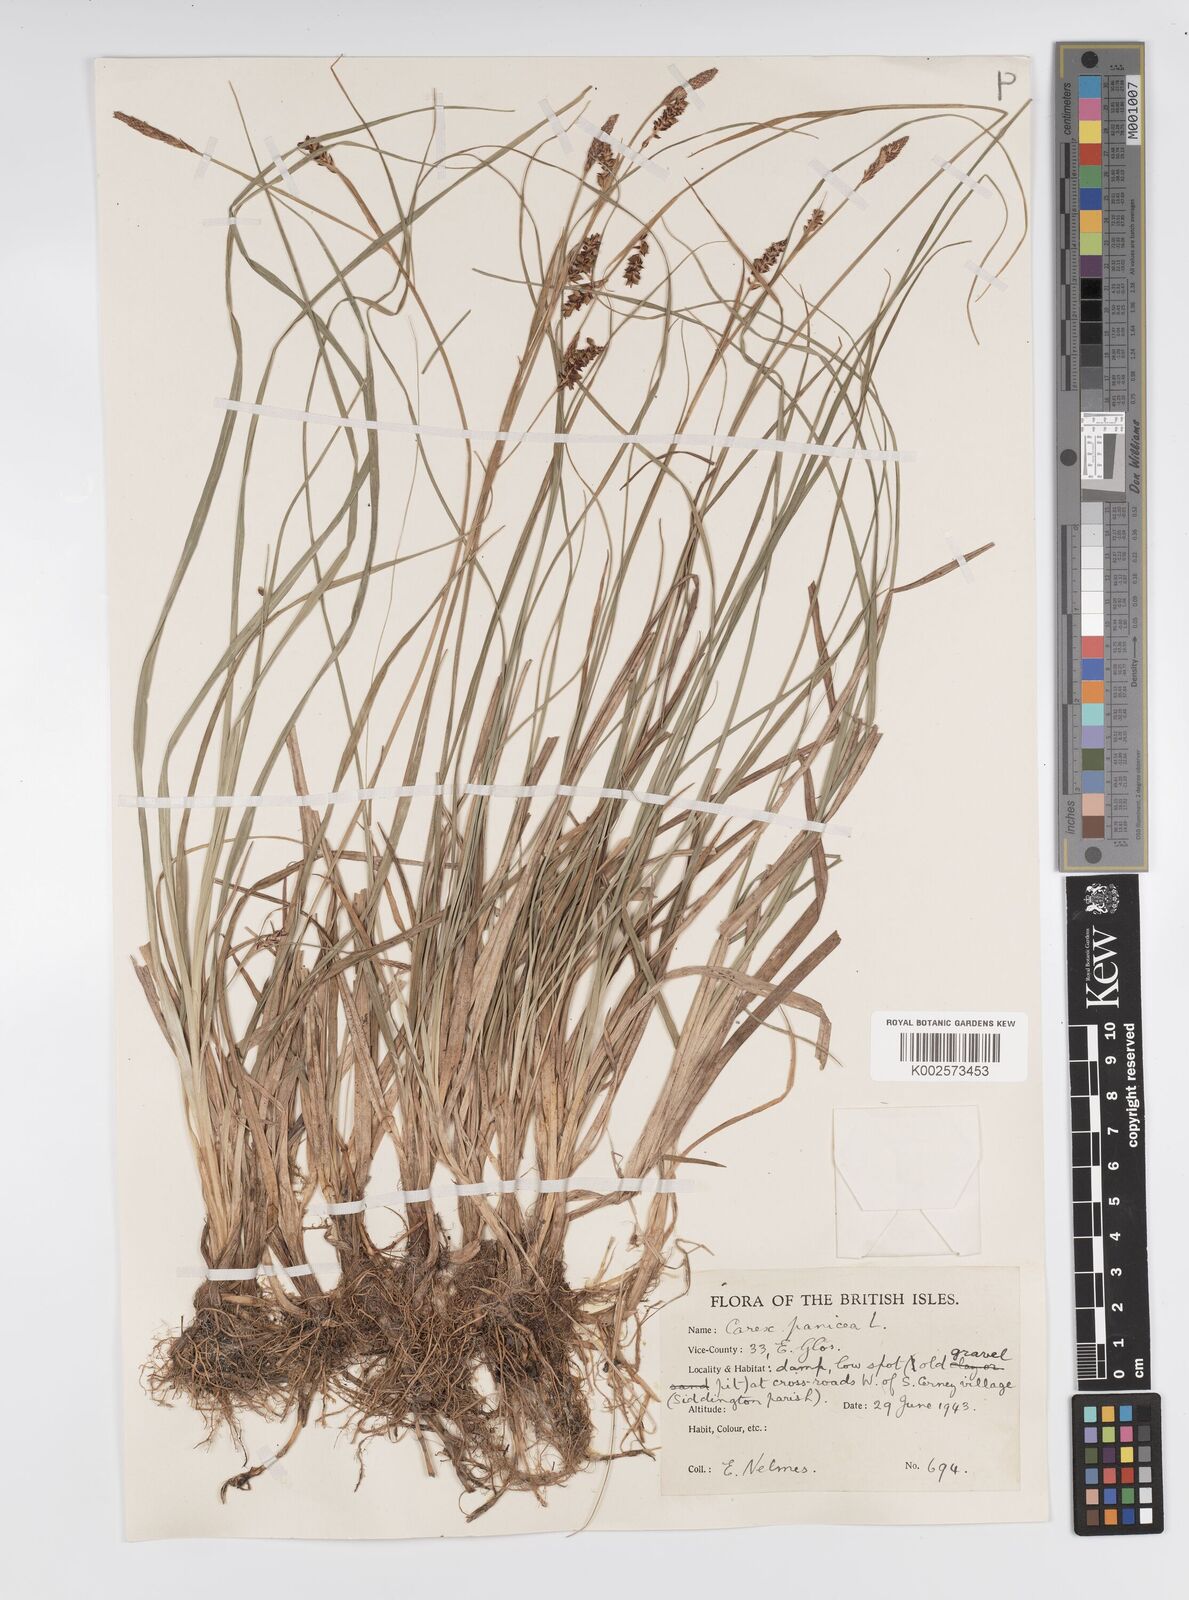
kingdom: Plantae
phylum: Tracheophyta
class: Liliopsida
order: Poales
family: Cyperaceae
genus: Carex
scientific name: Carex panicea
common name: Carnation sedge
